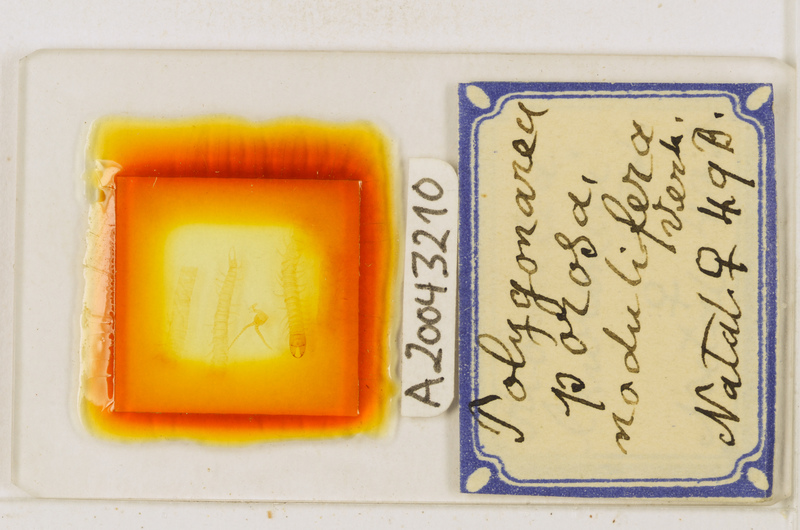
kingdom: Animalia
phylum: Arthropoda
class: Chilopoda
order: Geophilomorpha
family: Geophilidae
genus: Polygonarea
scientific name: Polygonarea africana
